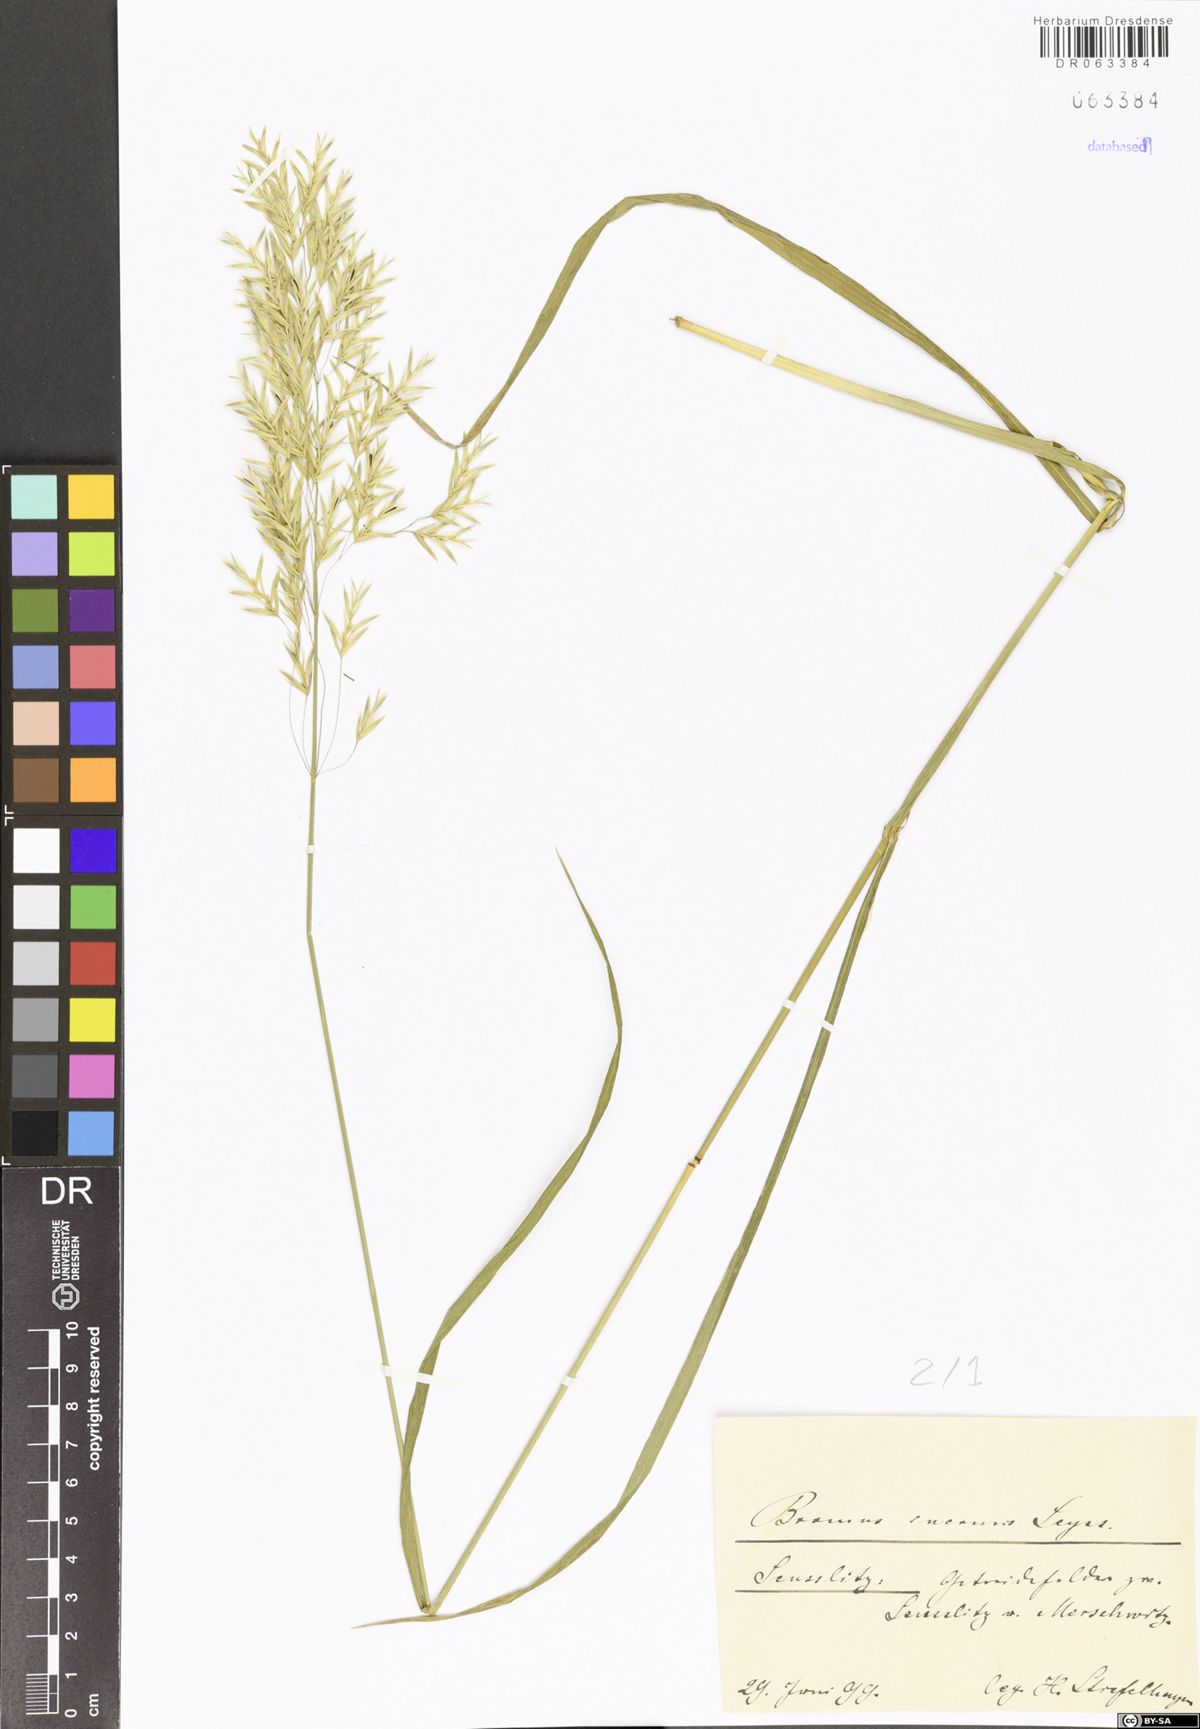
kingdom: Plantae
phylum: Tracheophyta
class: Liliopsida
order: Poales
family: Poaceae
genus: Bromus
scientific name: Bromus inermis
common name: Smooth brome
